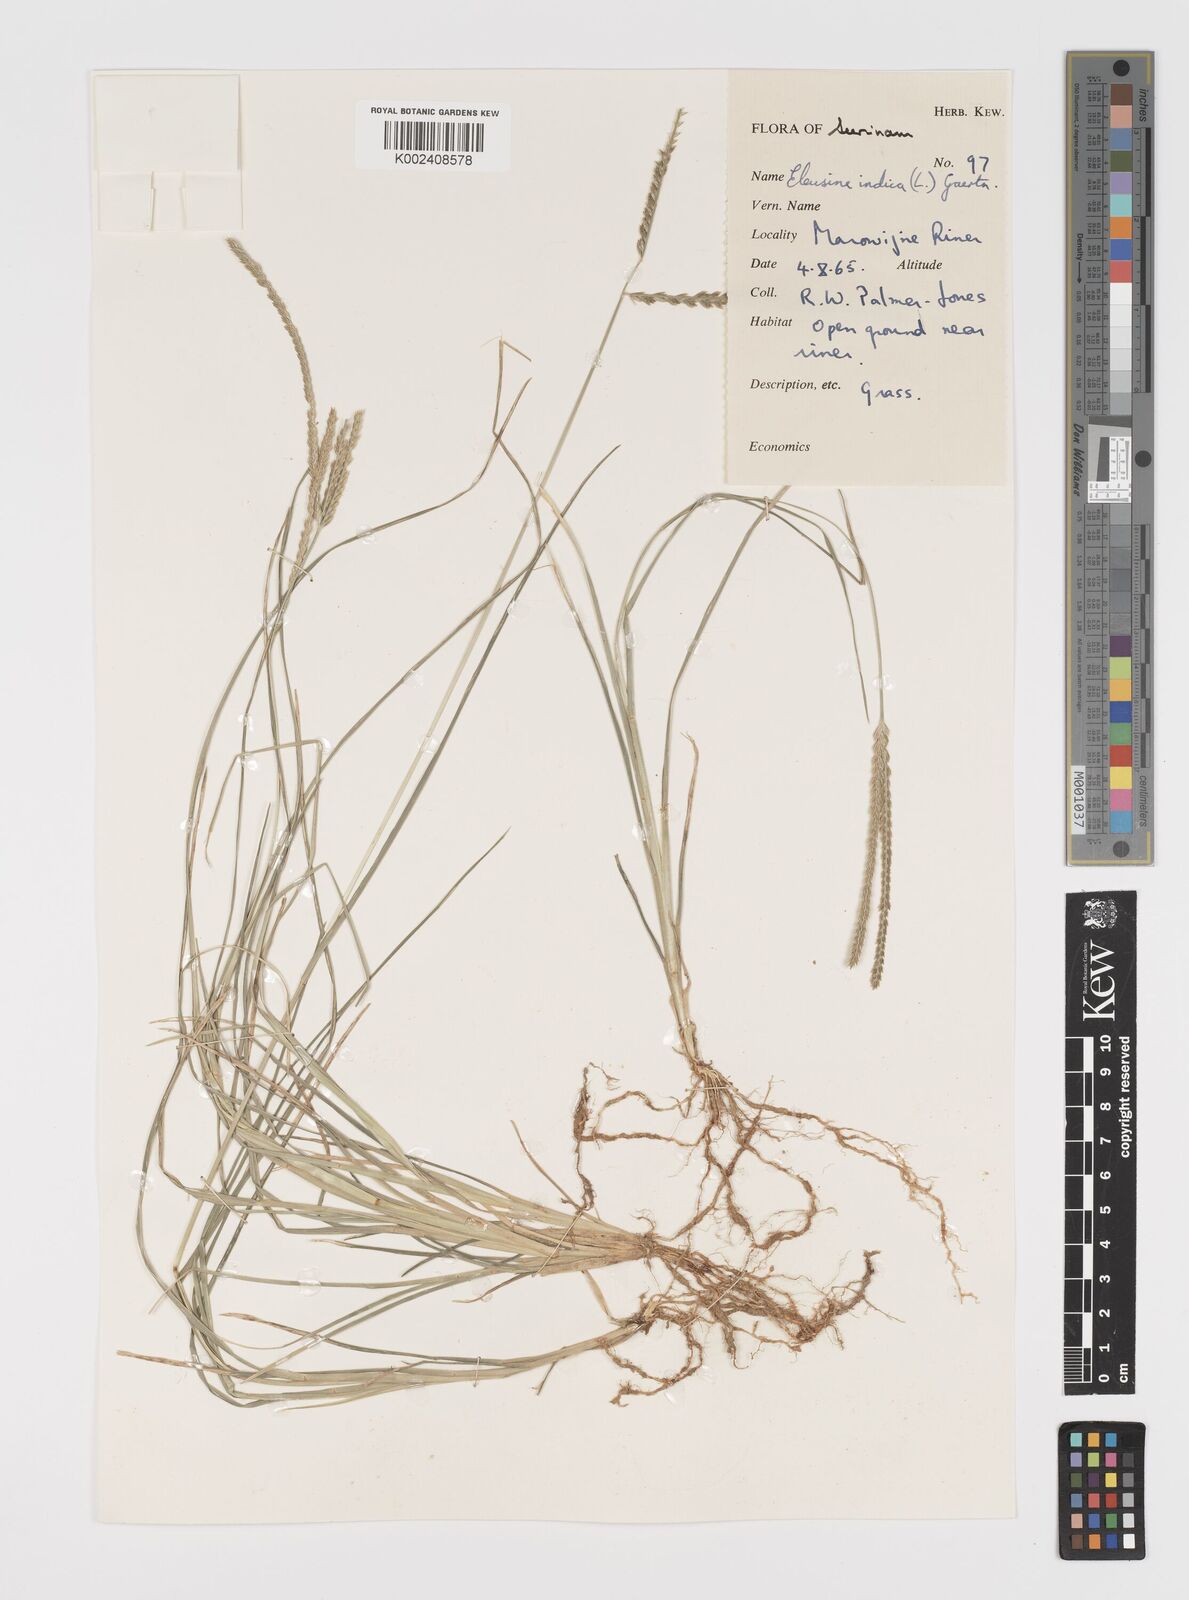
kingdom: Plantae
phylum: Tracheophyta
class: Liliopsida
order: Poales
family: Poaceae
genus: Eleusine
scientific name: Eleusine indica
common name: Yard-grass
